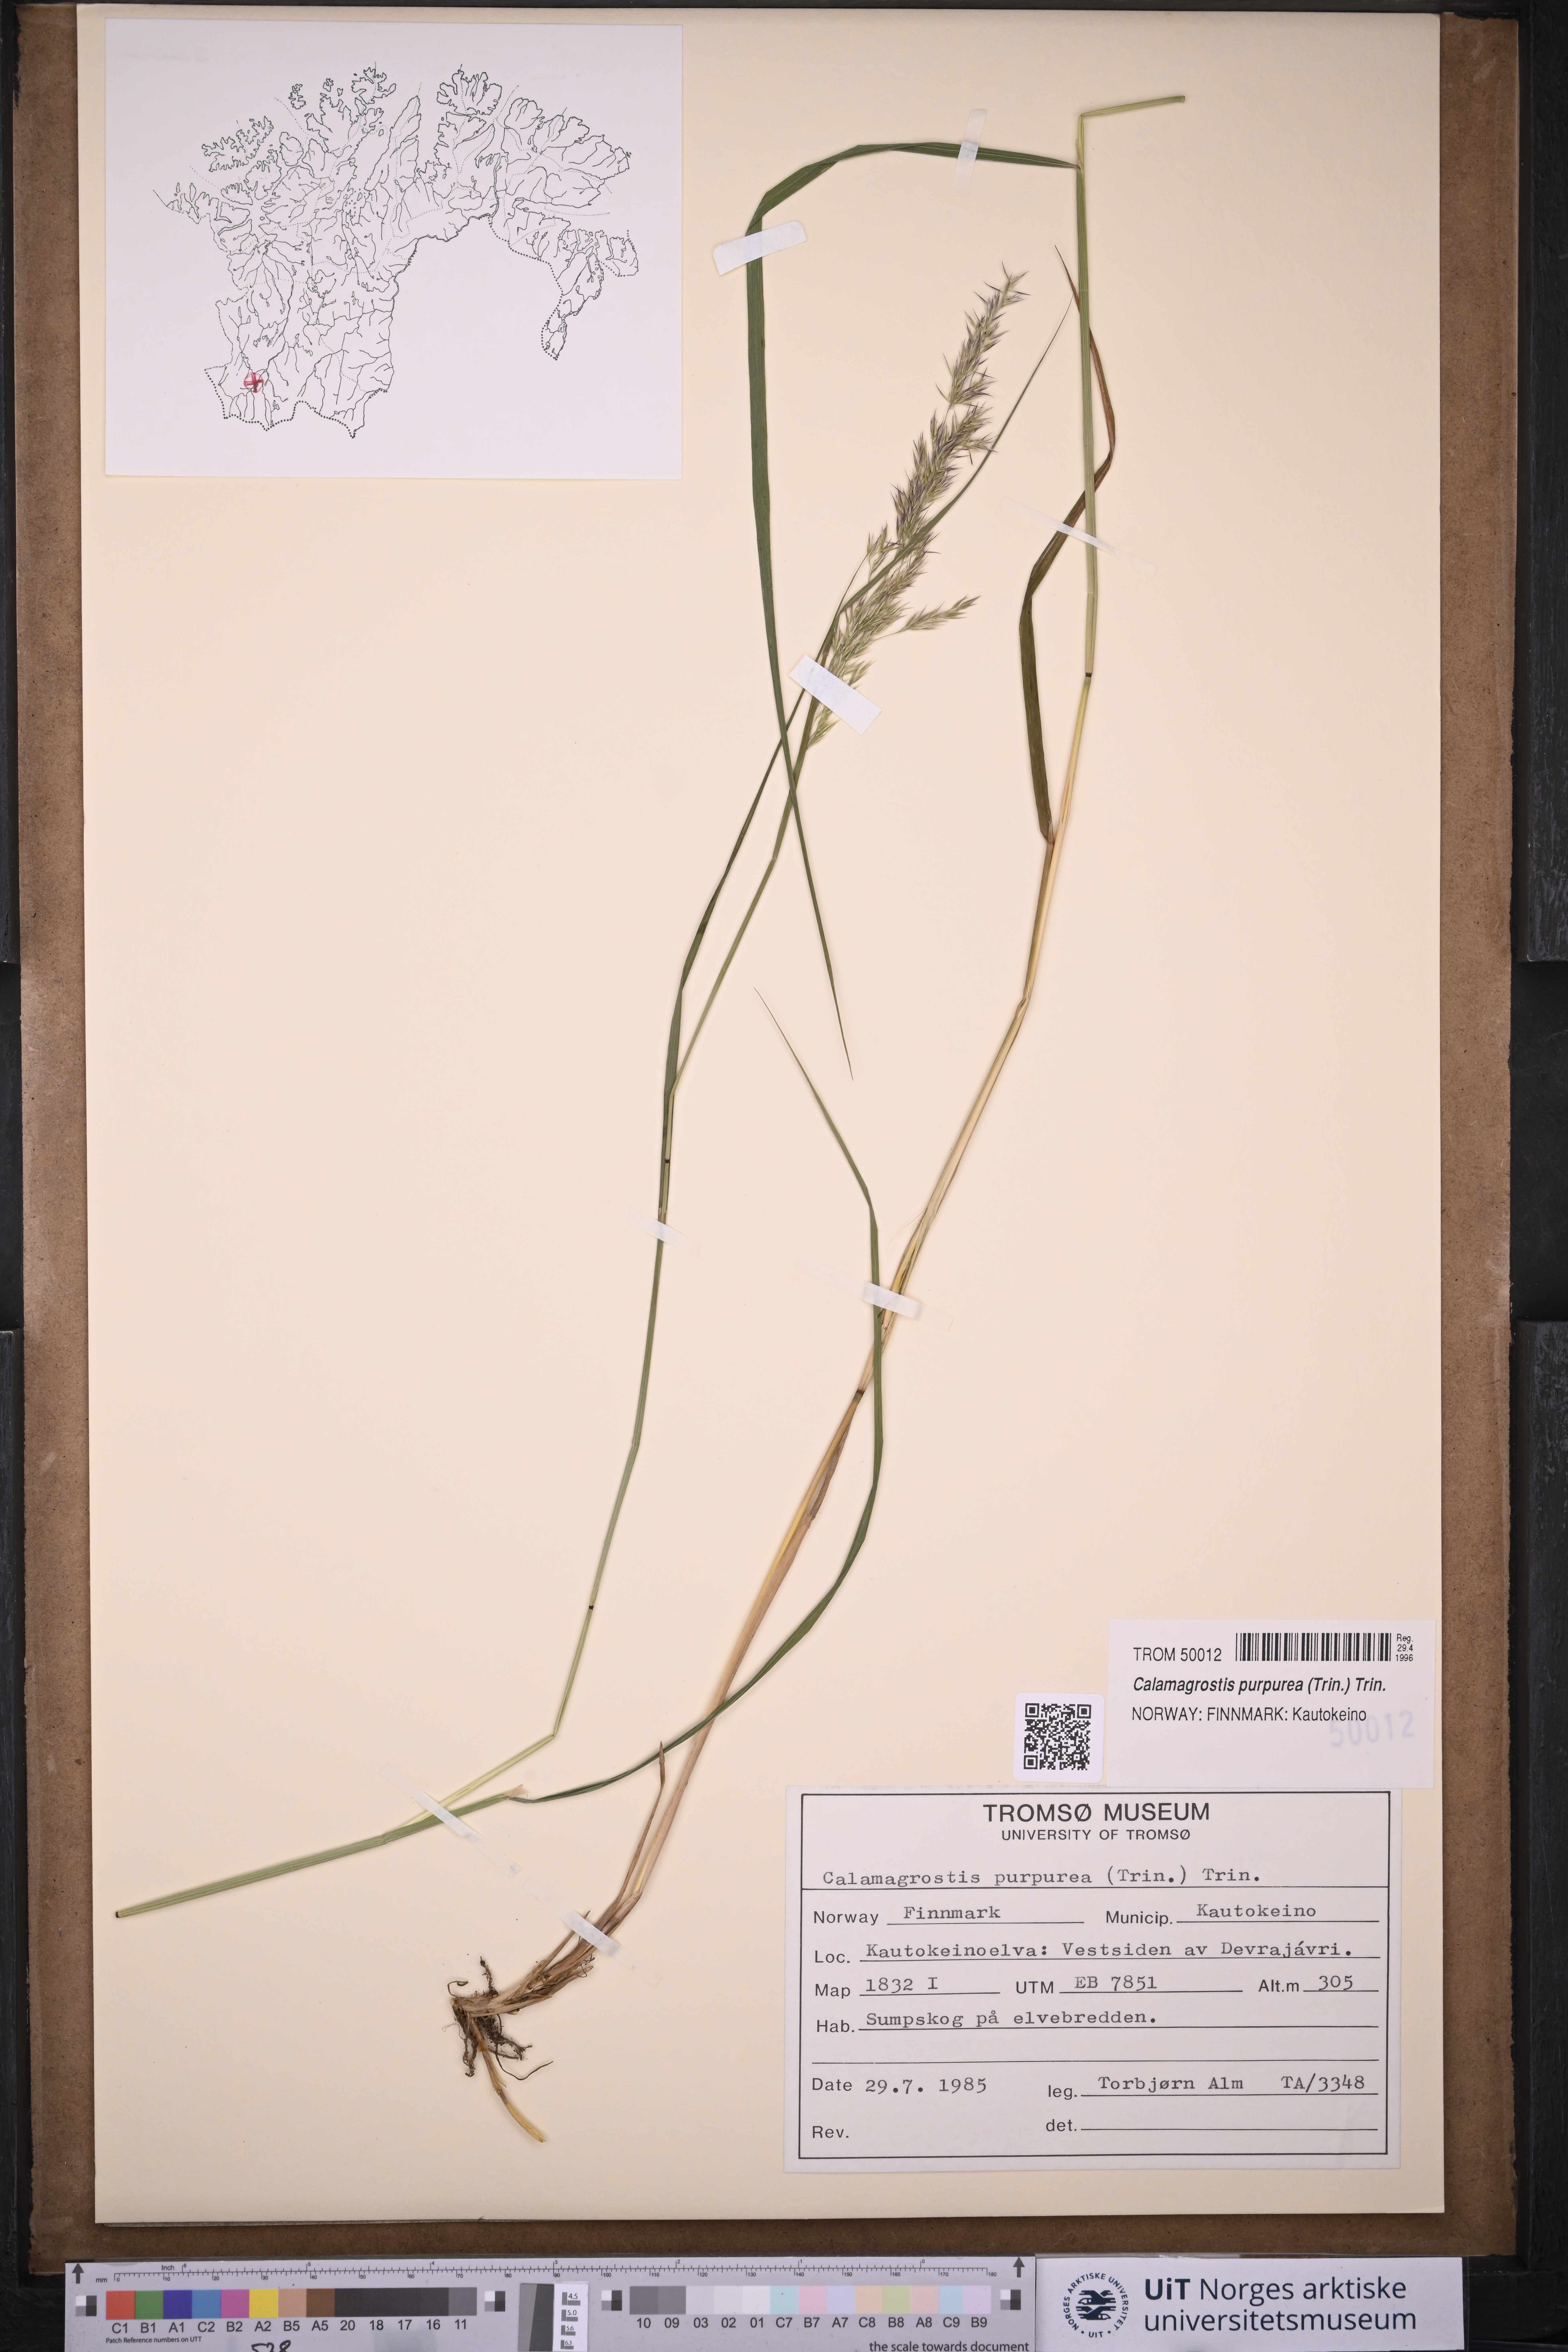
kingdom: Plantae
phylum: Tracheophyta
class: Liliopsida
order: Poales
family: Poaceae
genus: Calamagrostis
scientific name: Calamagrostis purpurea
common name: Scandinavian small-reed
